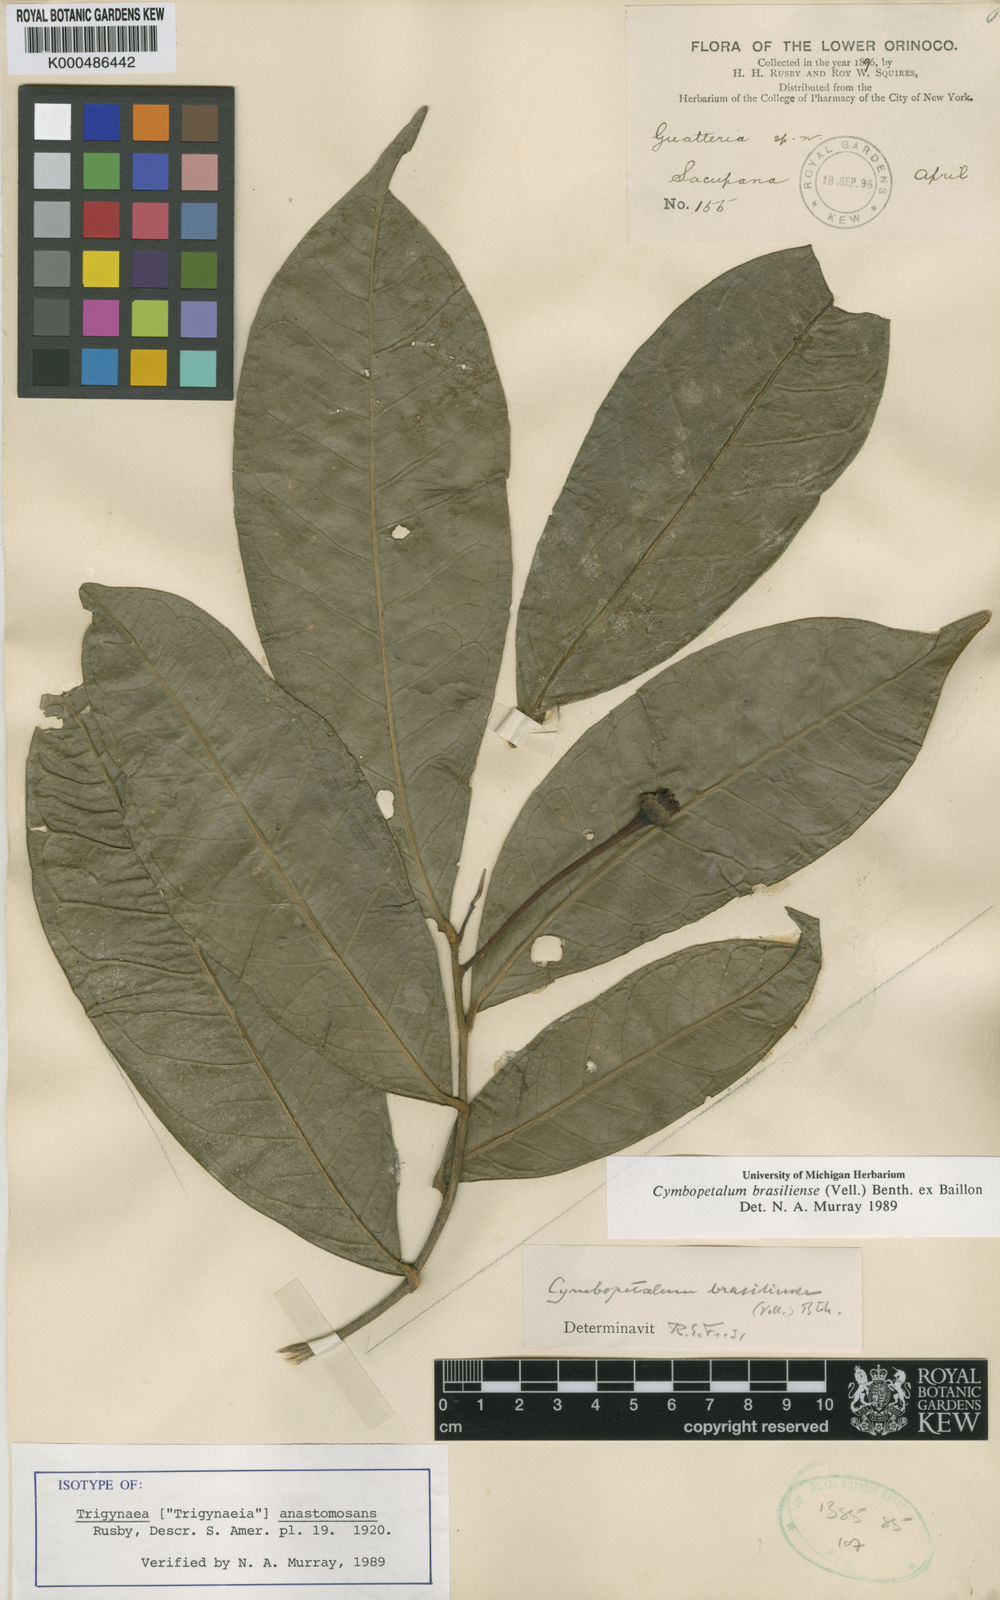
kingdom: Plantae
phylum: Tracheophyta
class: Magnoliopsida
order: Magnoliales
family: Annonaceae
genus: Cymbopetalum
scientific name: Cymbopetalum brasiliense
